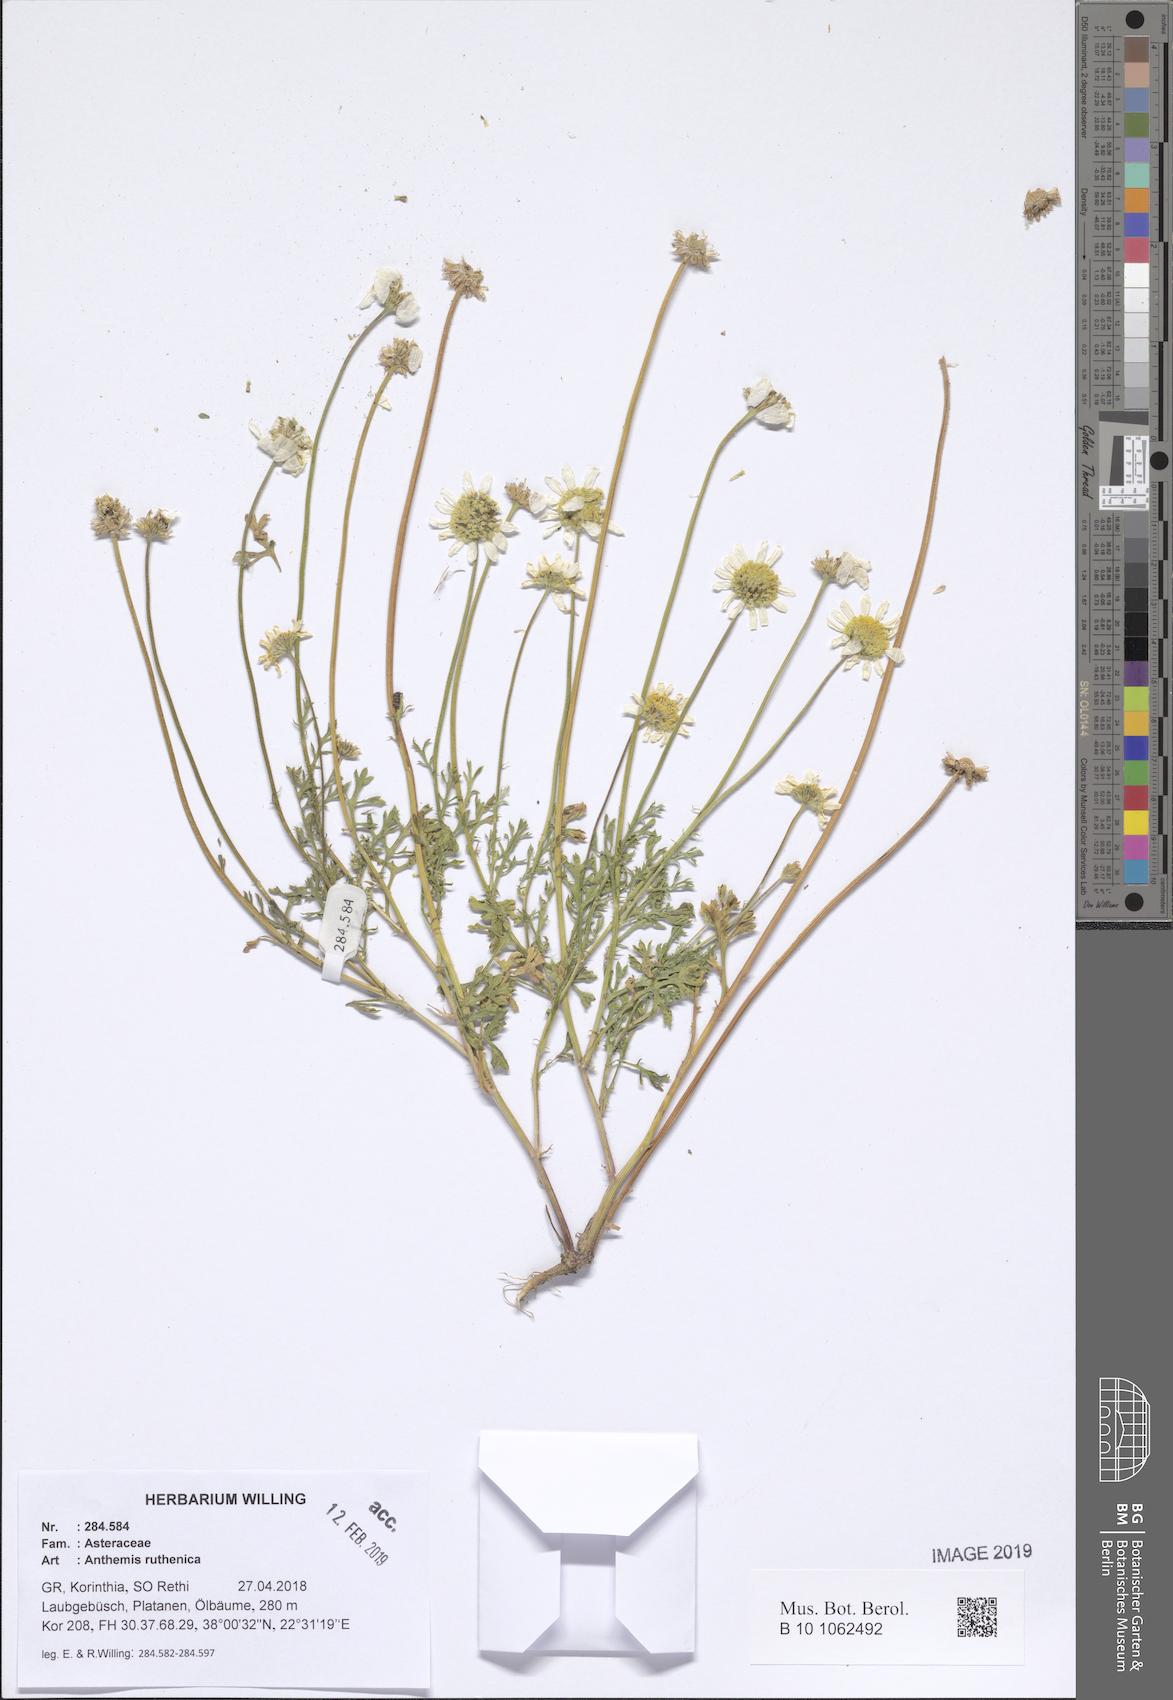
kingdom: Plantae
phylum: Tracheophyta
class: Magnoliopsida
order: Asterales
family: Asteraceae
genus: Anthemis
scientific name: Anthemis ruthenica
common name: Eastern chamomile
